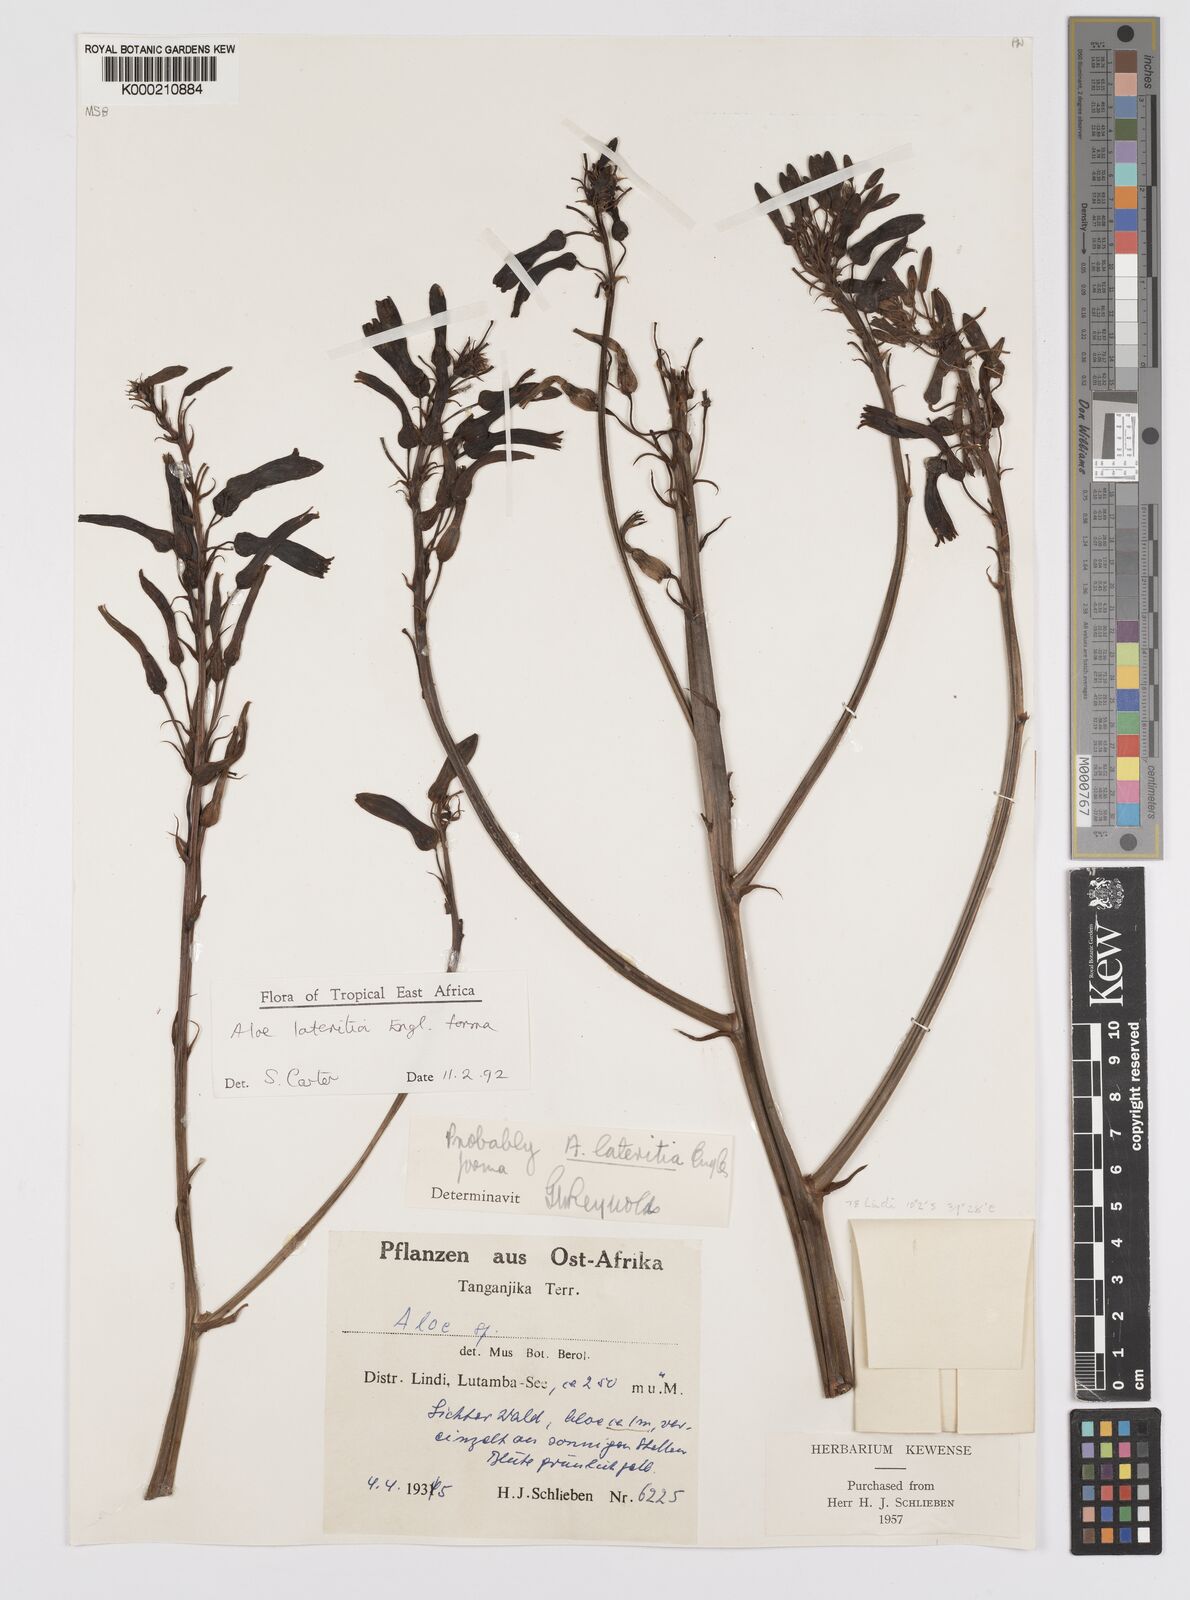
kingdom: Plantae
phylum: Tracheophyta
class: Liliopsida
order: Asparagales
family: Asphodelaceae
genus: Aloe
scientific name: Aloe lateritia
